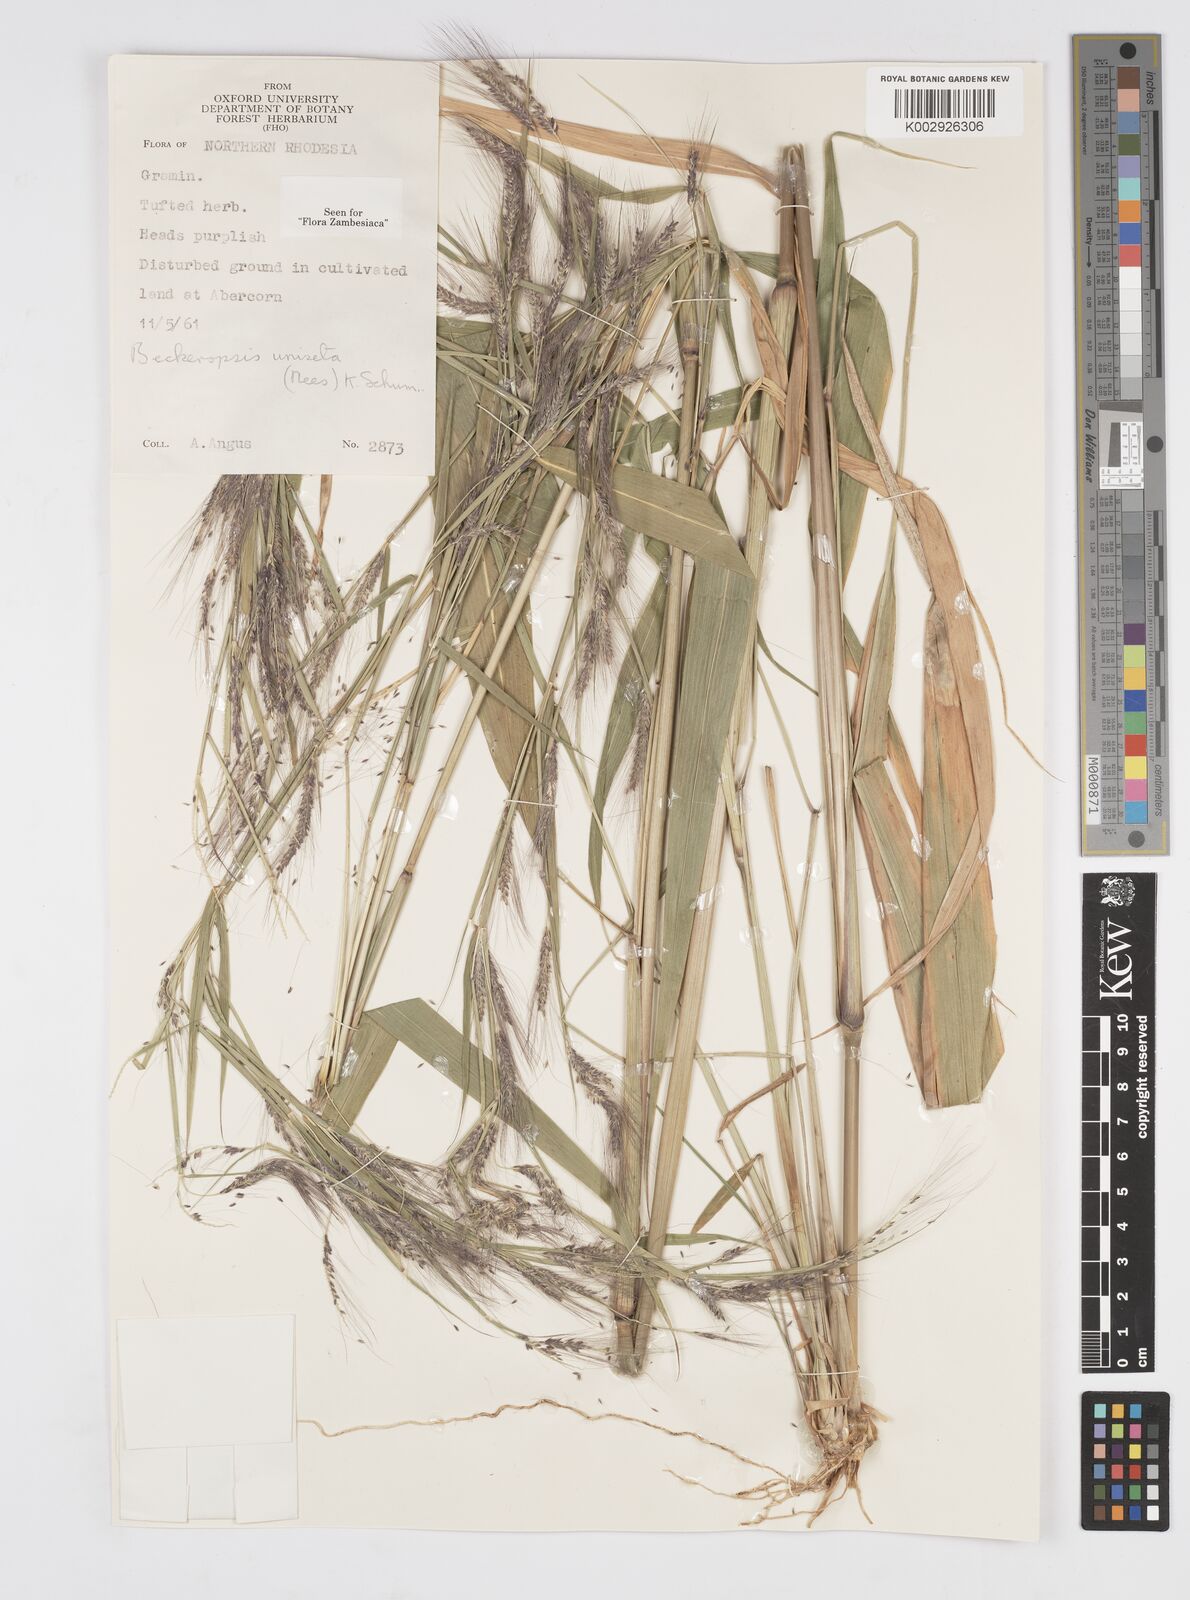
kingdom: Plantae
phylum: Tracheophyta
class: Liliopsida
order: Poales
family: Poaceae
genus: Cenchrus
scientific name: Cenchrus unisetus
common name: Natal grass
